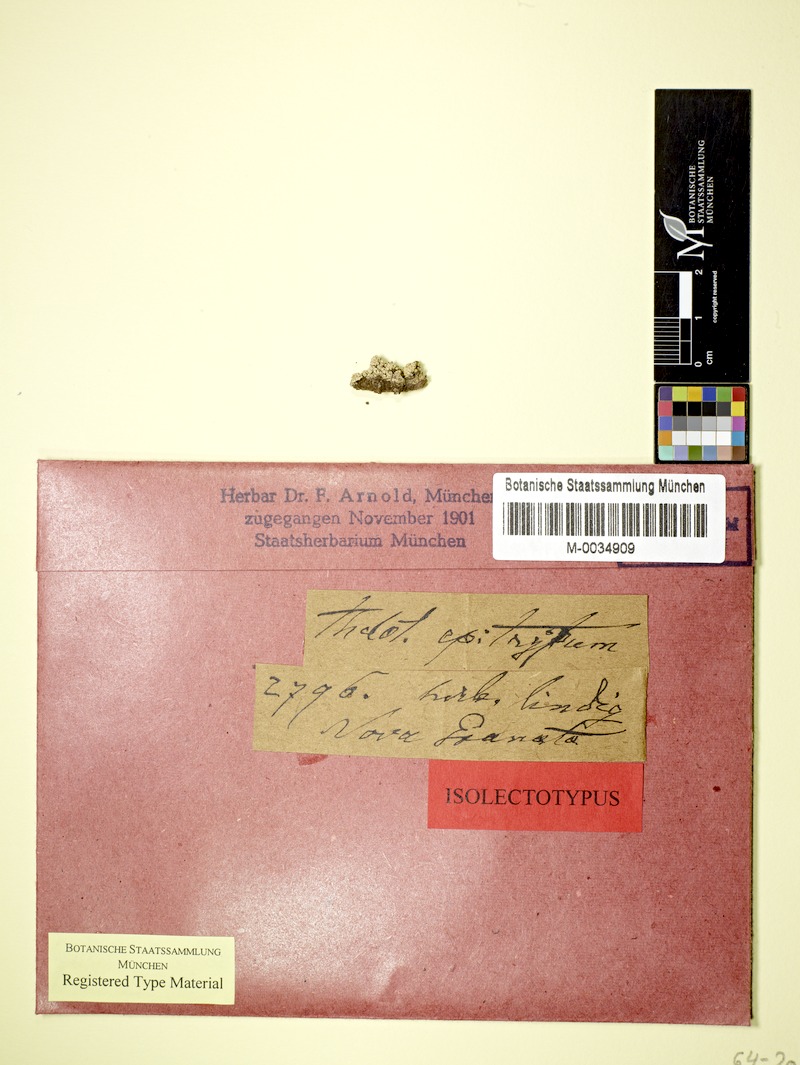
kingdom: Fungi
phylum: Ascomycota
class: Lecanoromycetes
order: Ostropales
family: Graphidaceae
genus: Stegobolus
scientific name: Stegobolus fissus
